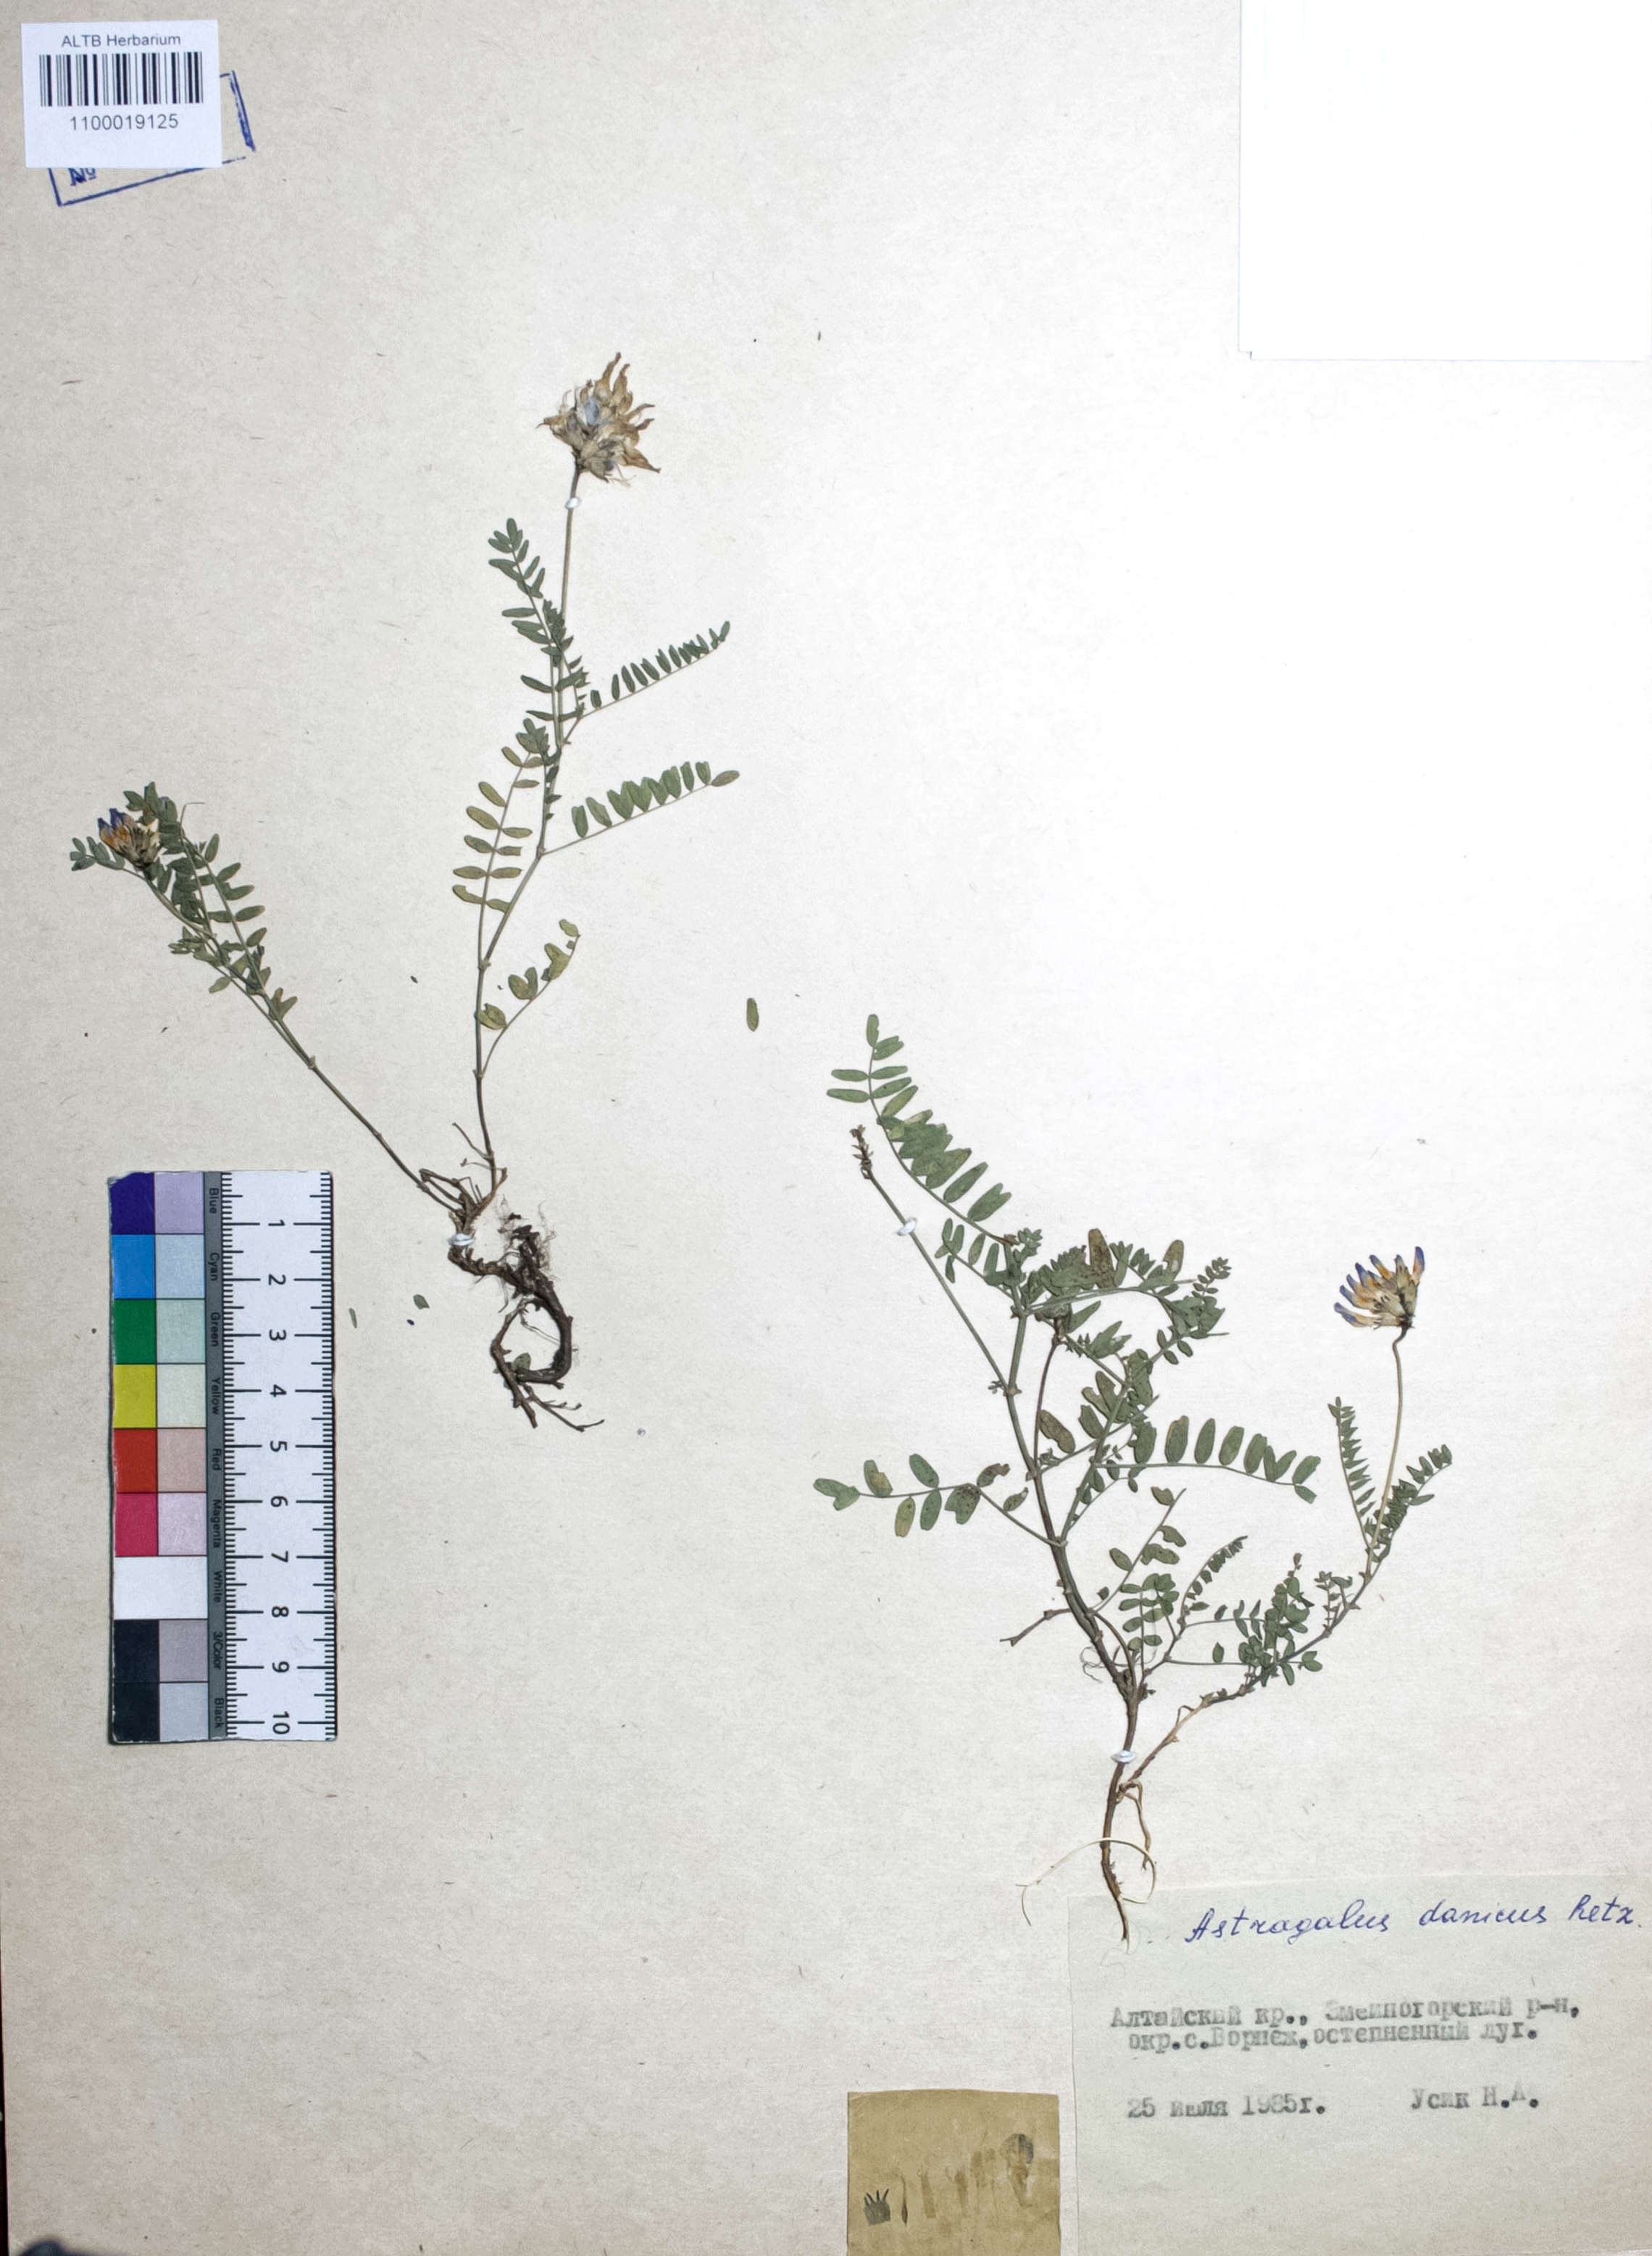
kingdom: Plantae
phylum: Tracheophyta
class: Magnoliopsida
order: Fabales
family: Fabaceae
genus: Astragalus
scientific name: Astragalus danicus
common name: Purple milk-vetch
